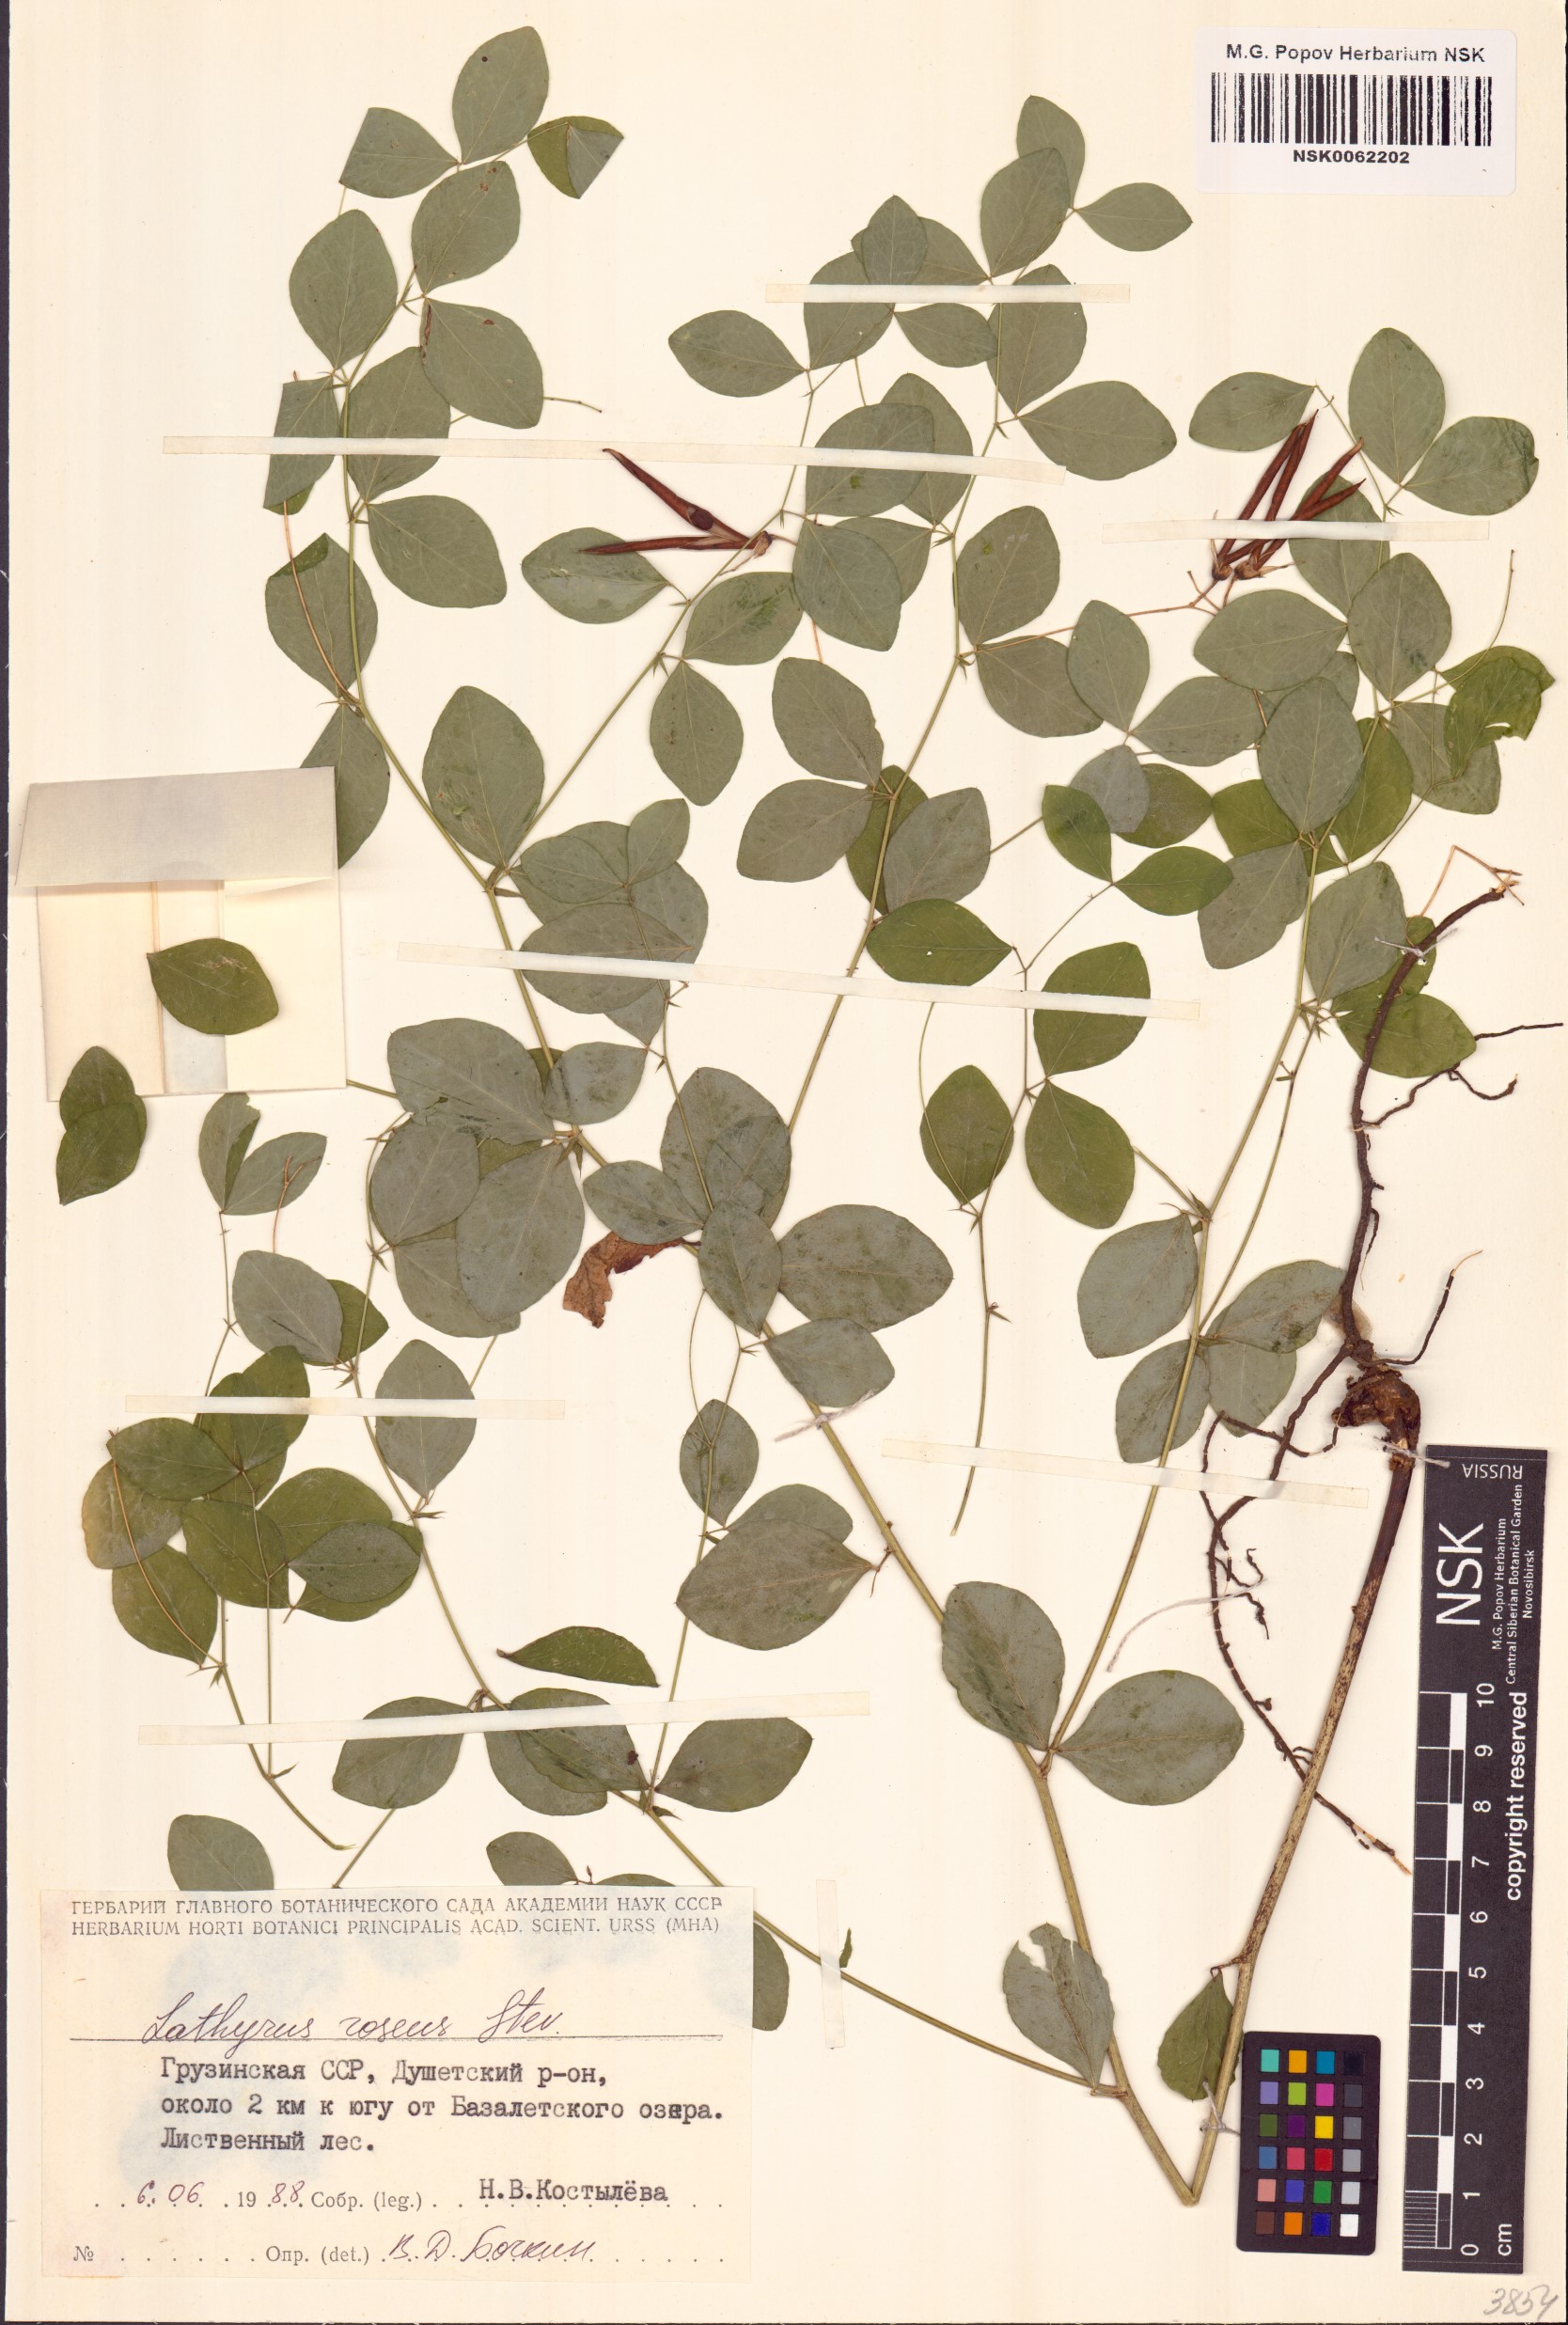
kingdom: Plantae
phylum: Tracheophyta
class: Magnoliopsida
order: Fabales
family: Fabaceae
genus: Lathyrus
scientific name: Lathyrus roseus
